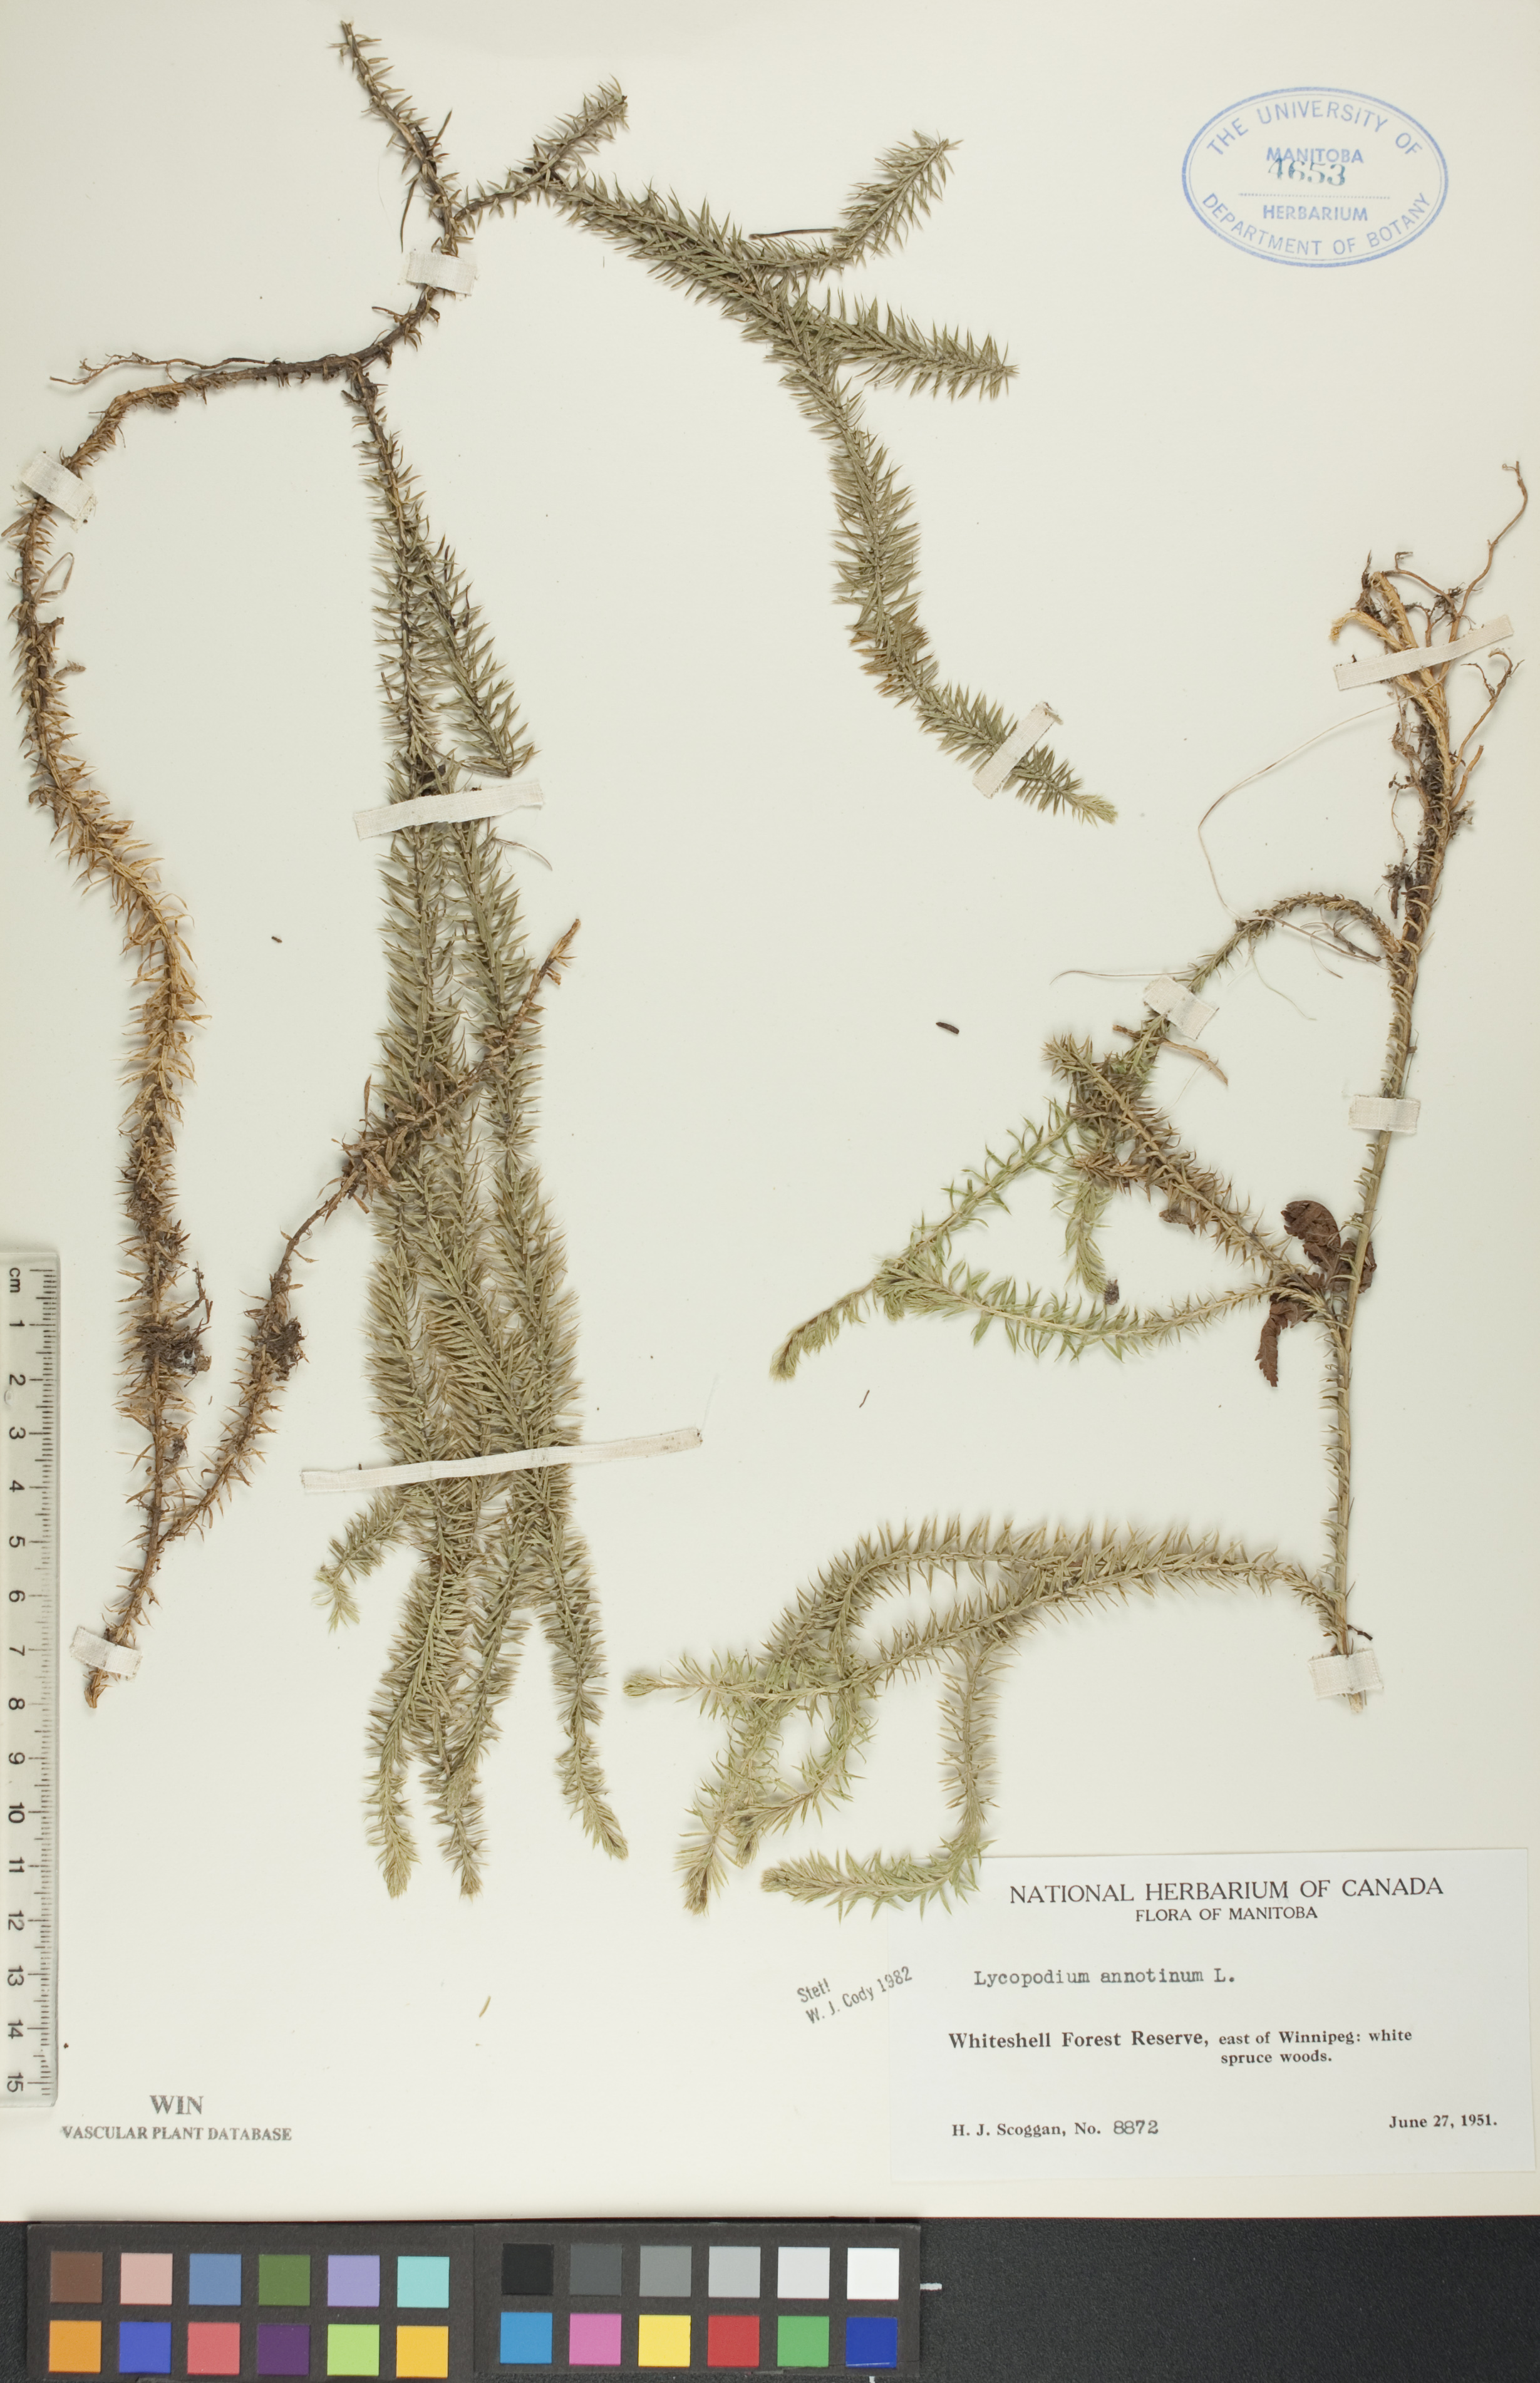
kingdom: Plantae
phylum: Tracheophyta
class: Lycopodiopsida
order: Lycopodiales
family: Lycopodiaceae
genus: Spinulum
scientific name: Spinulum annotinum
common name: Interrupted club-moss
